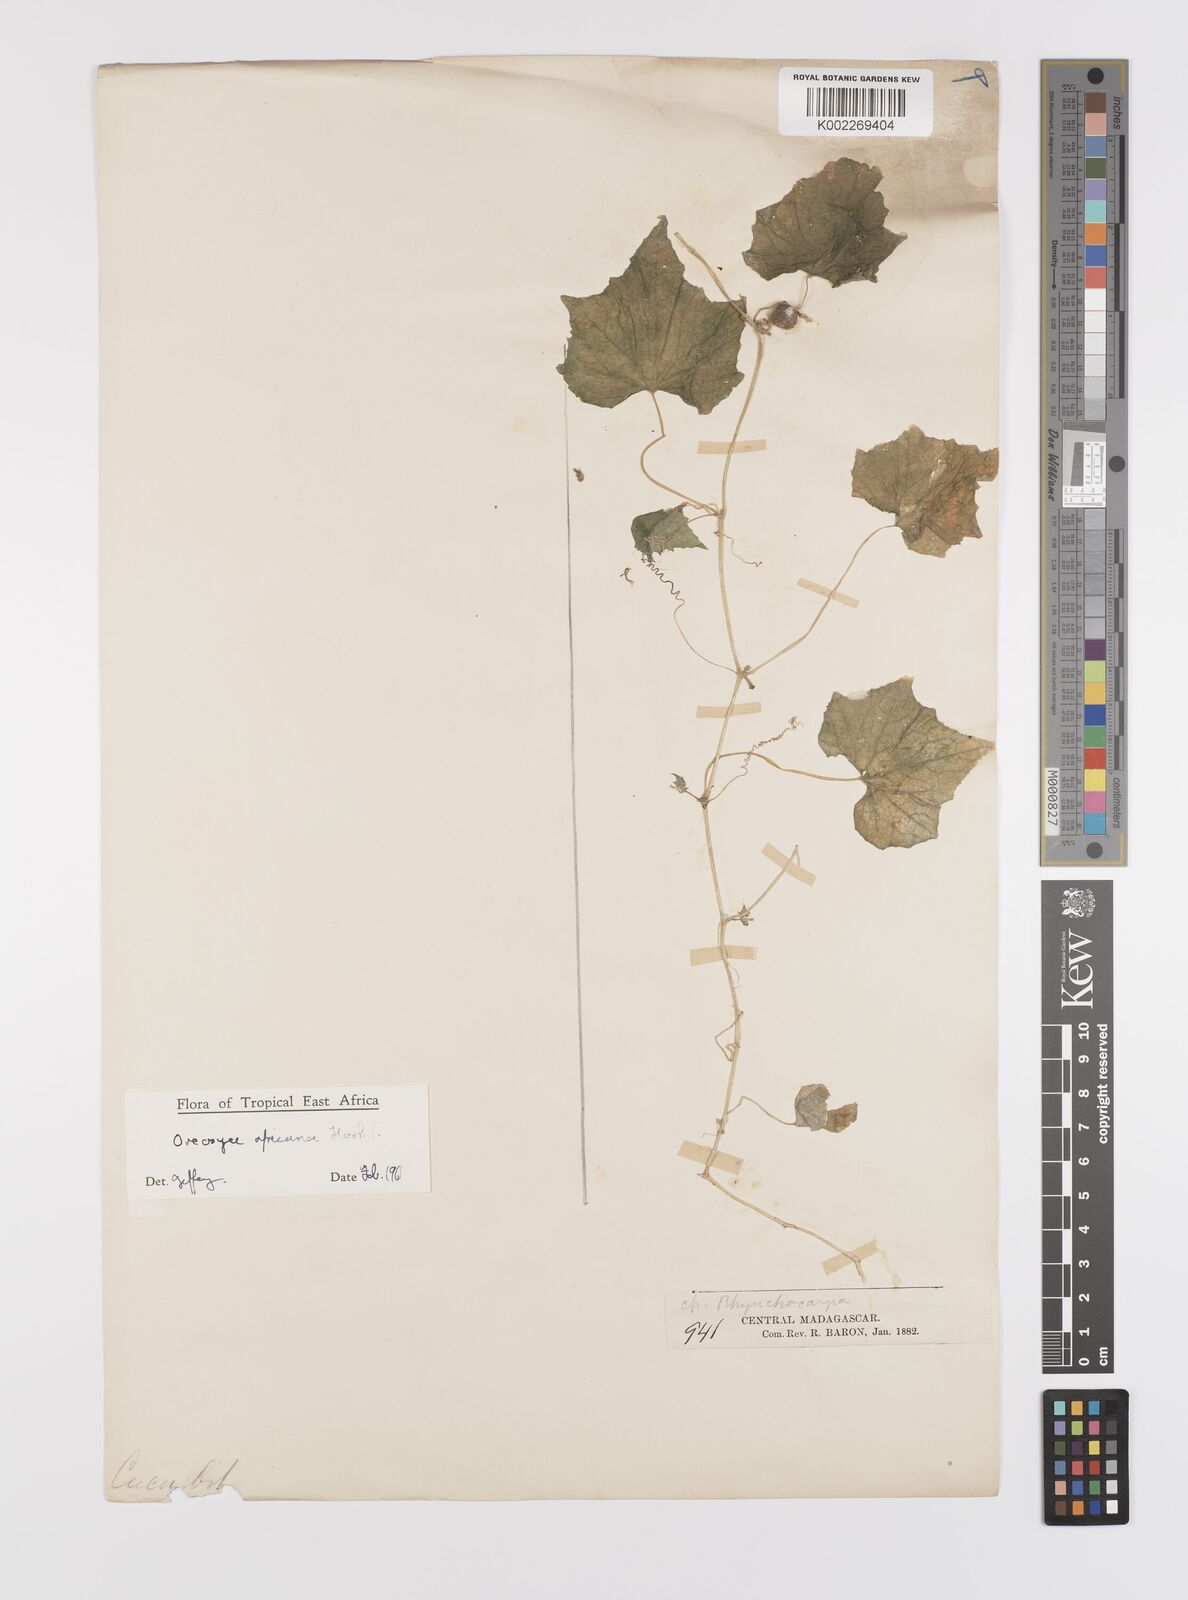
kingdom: Plantae
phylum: Tracheophyta
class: Magnoliopsida
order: Cucurbitales
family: Cucurbitaceae
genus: Cucumis
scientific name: Cucumis oreosyce
